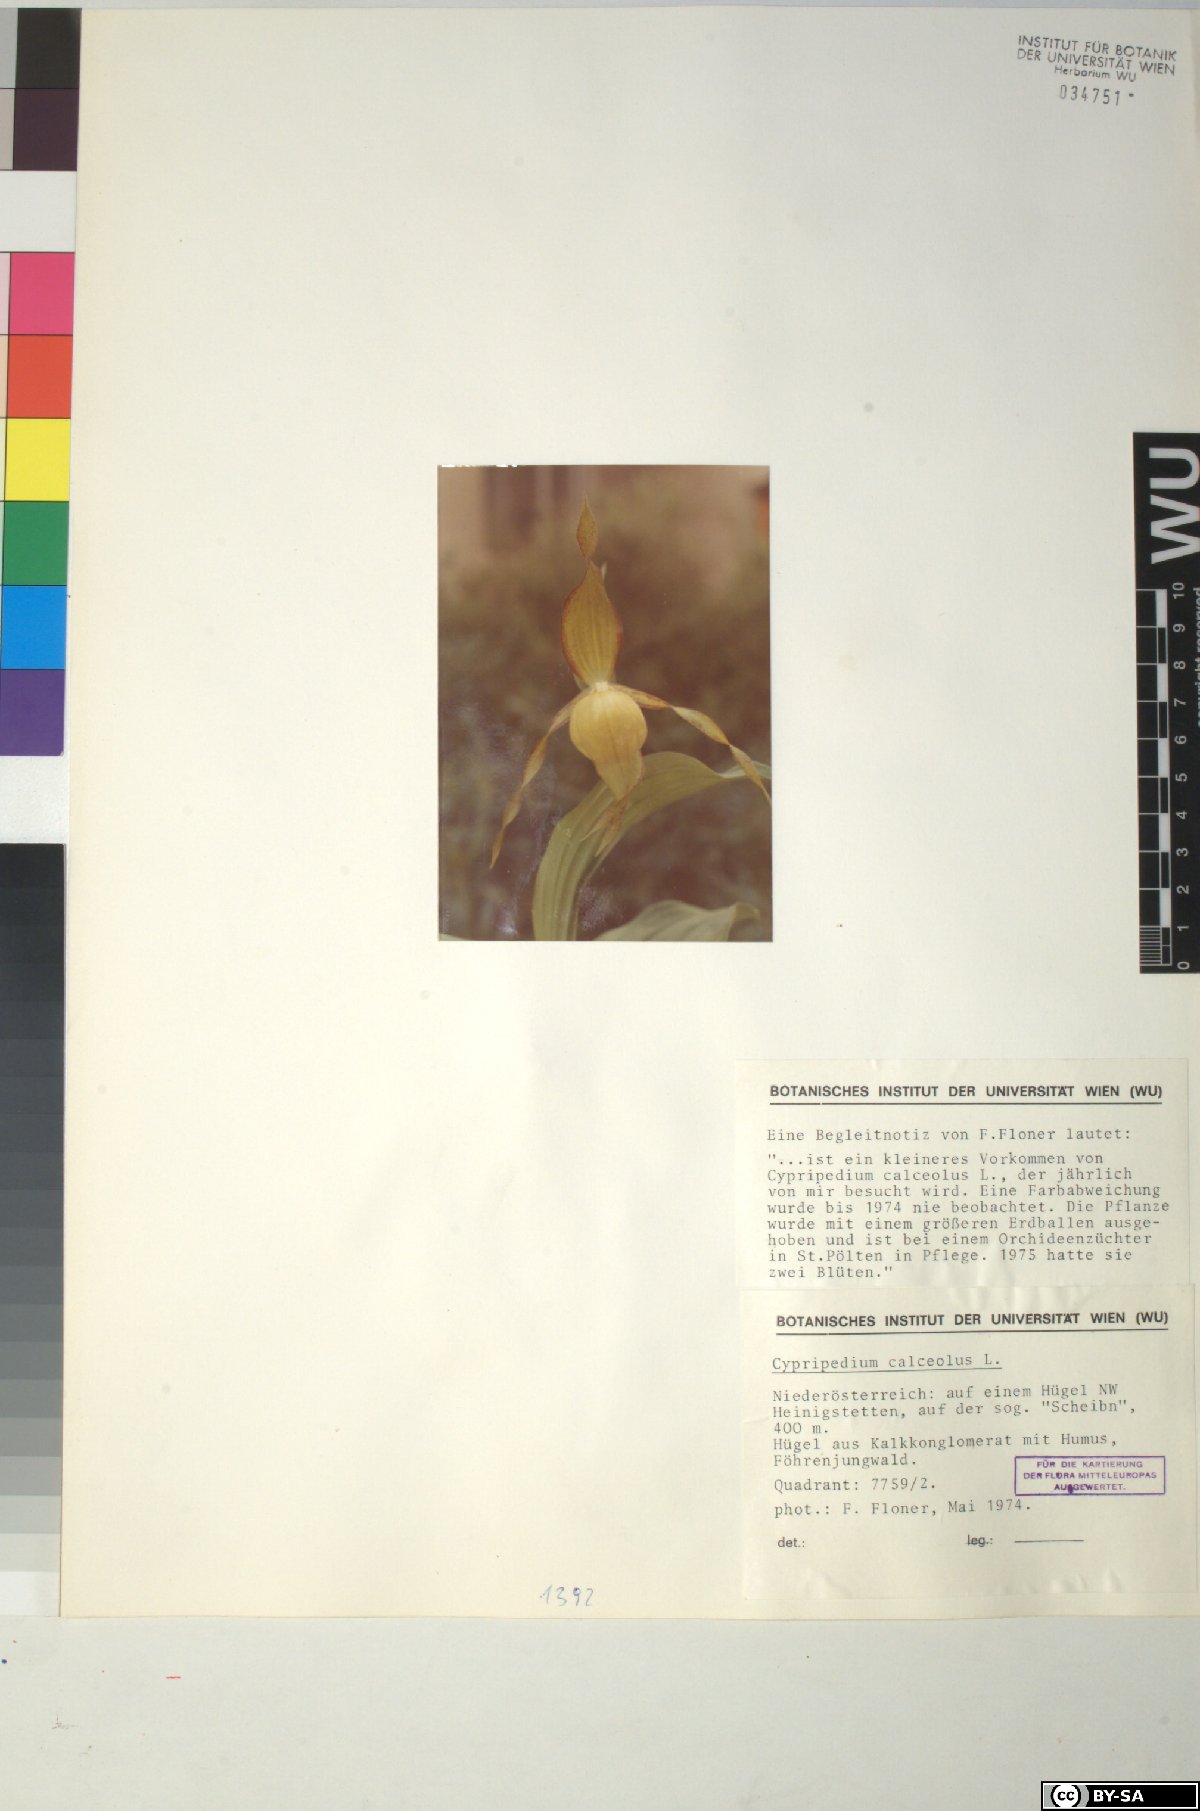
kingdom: Plantae
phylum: Tracheophyta
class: Liliopsida
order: Asparagales
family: Orchidaceae
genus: Cypripedium
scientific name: Cypripedium calceolus
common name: Lady's-slipper
